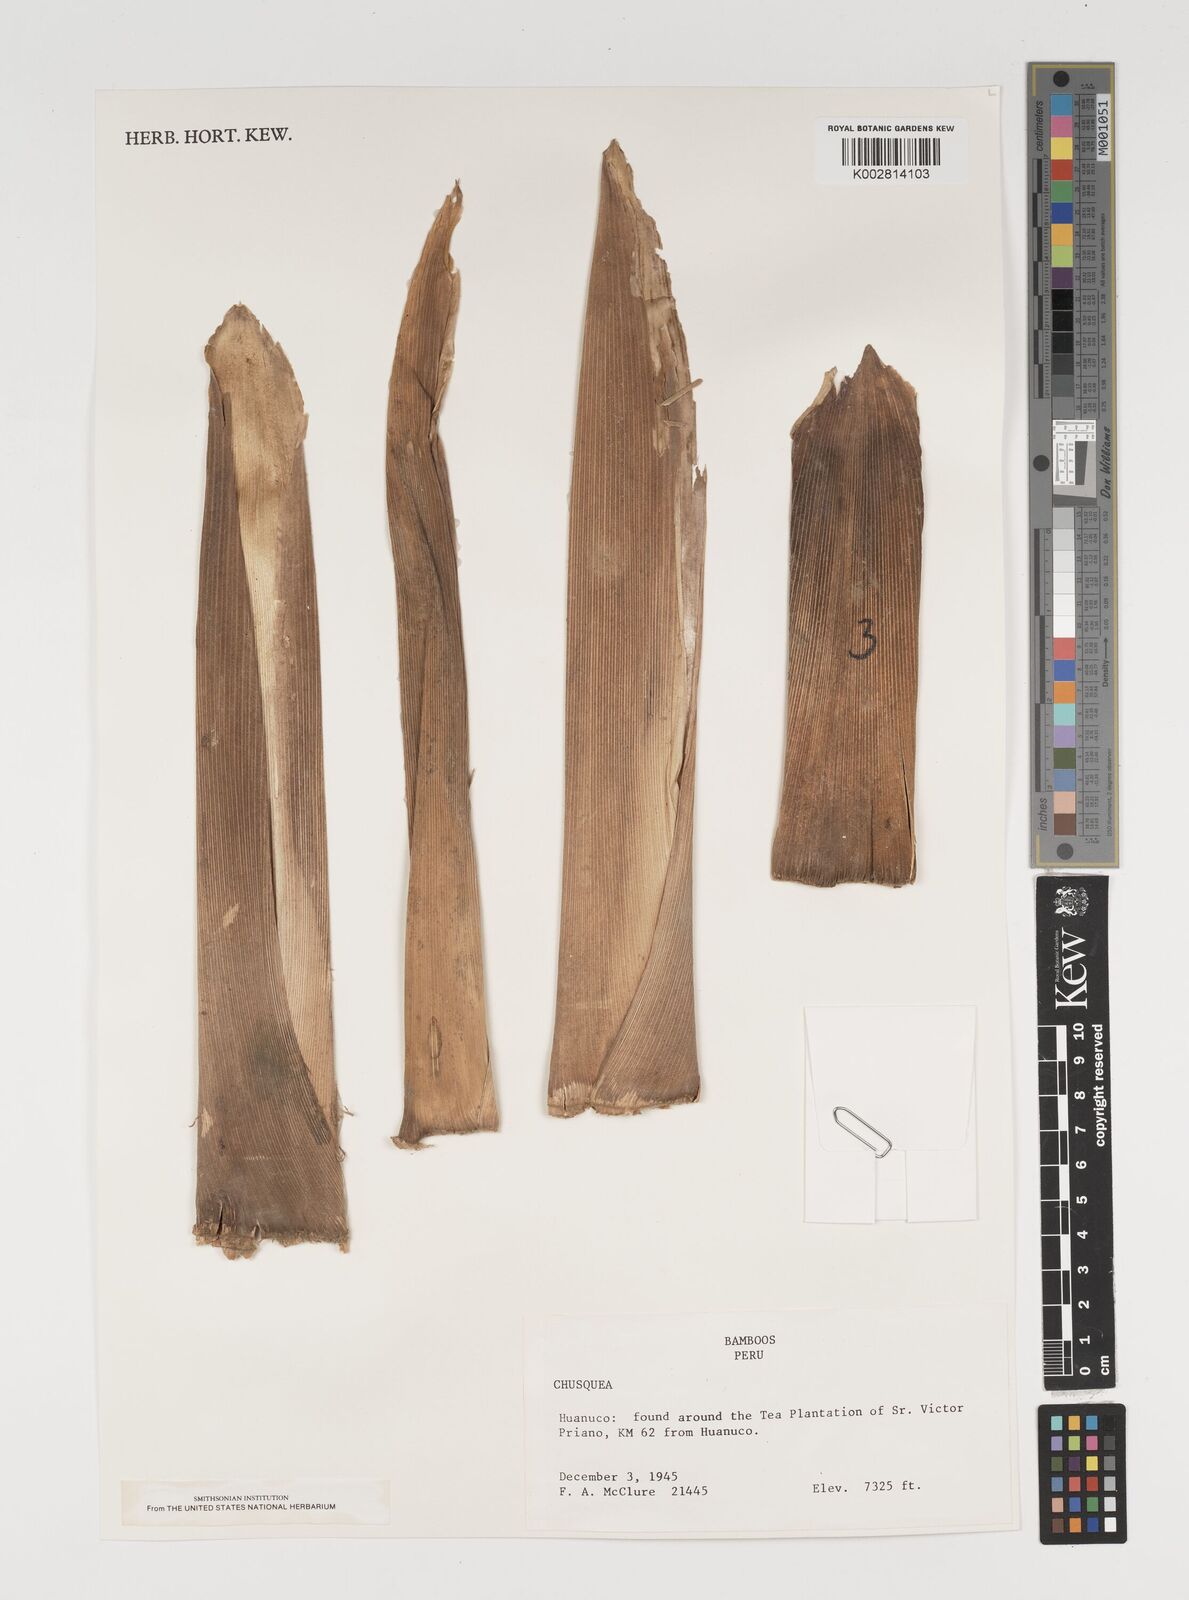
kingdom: Plantae
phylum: Tracheophyta
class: Liliopsida
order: Poales
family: Poaceae
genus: Chusquea
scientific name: Chusquea
